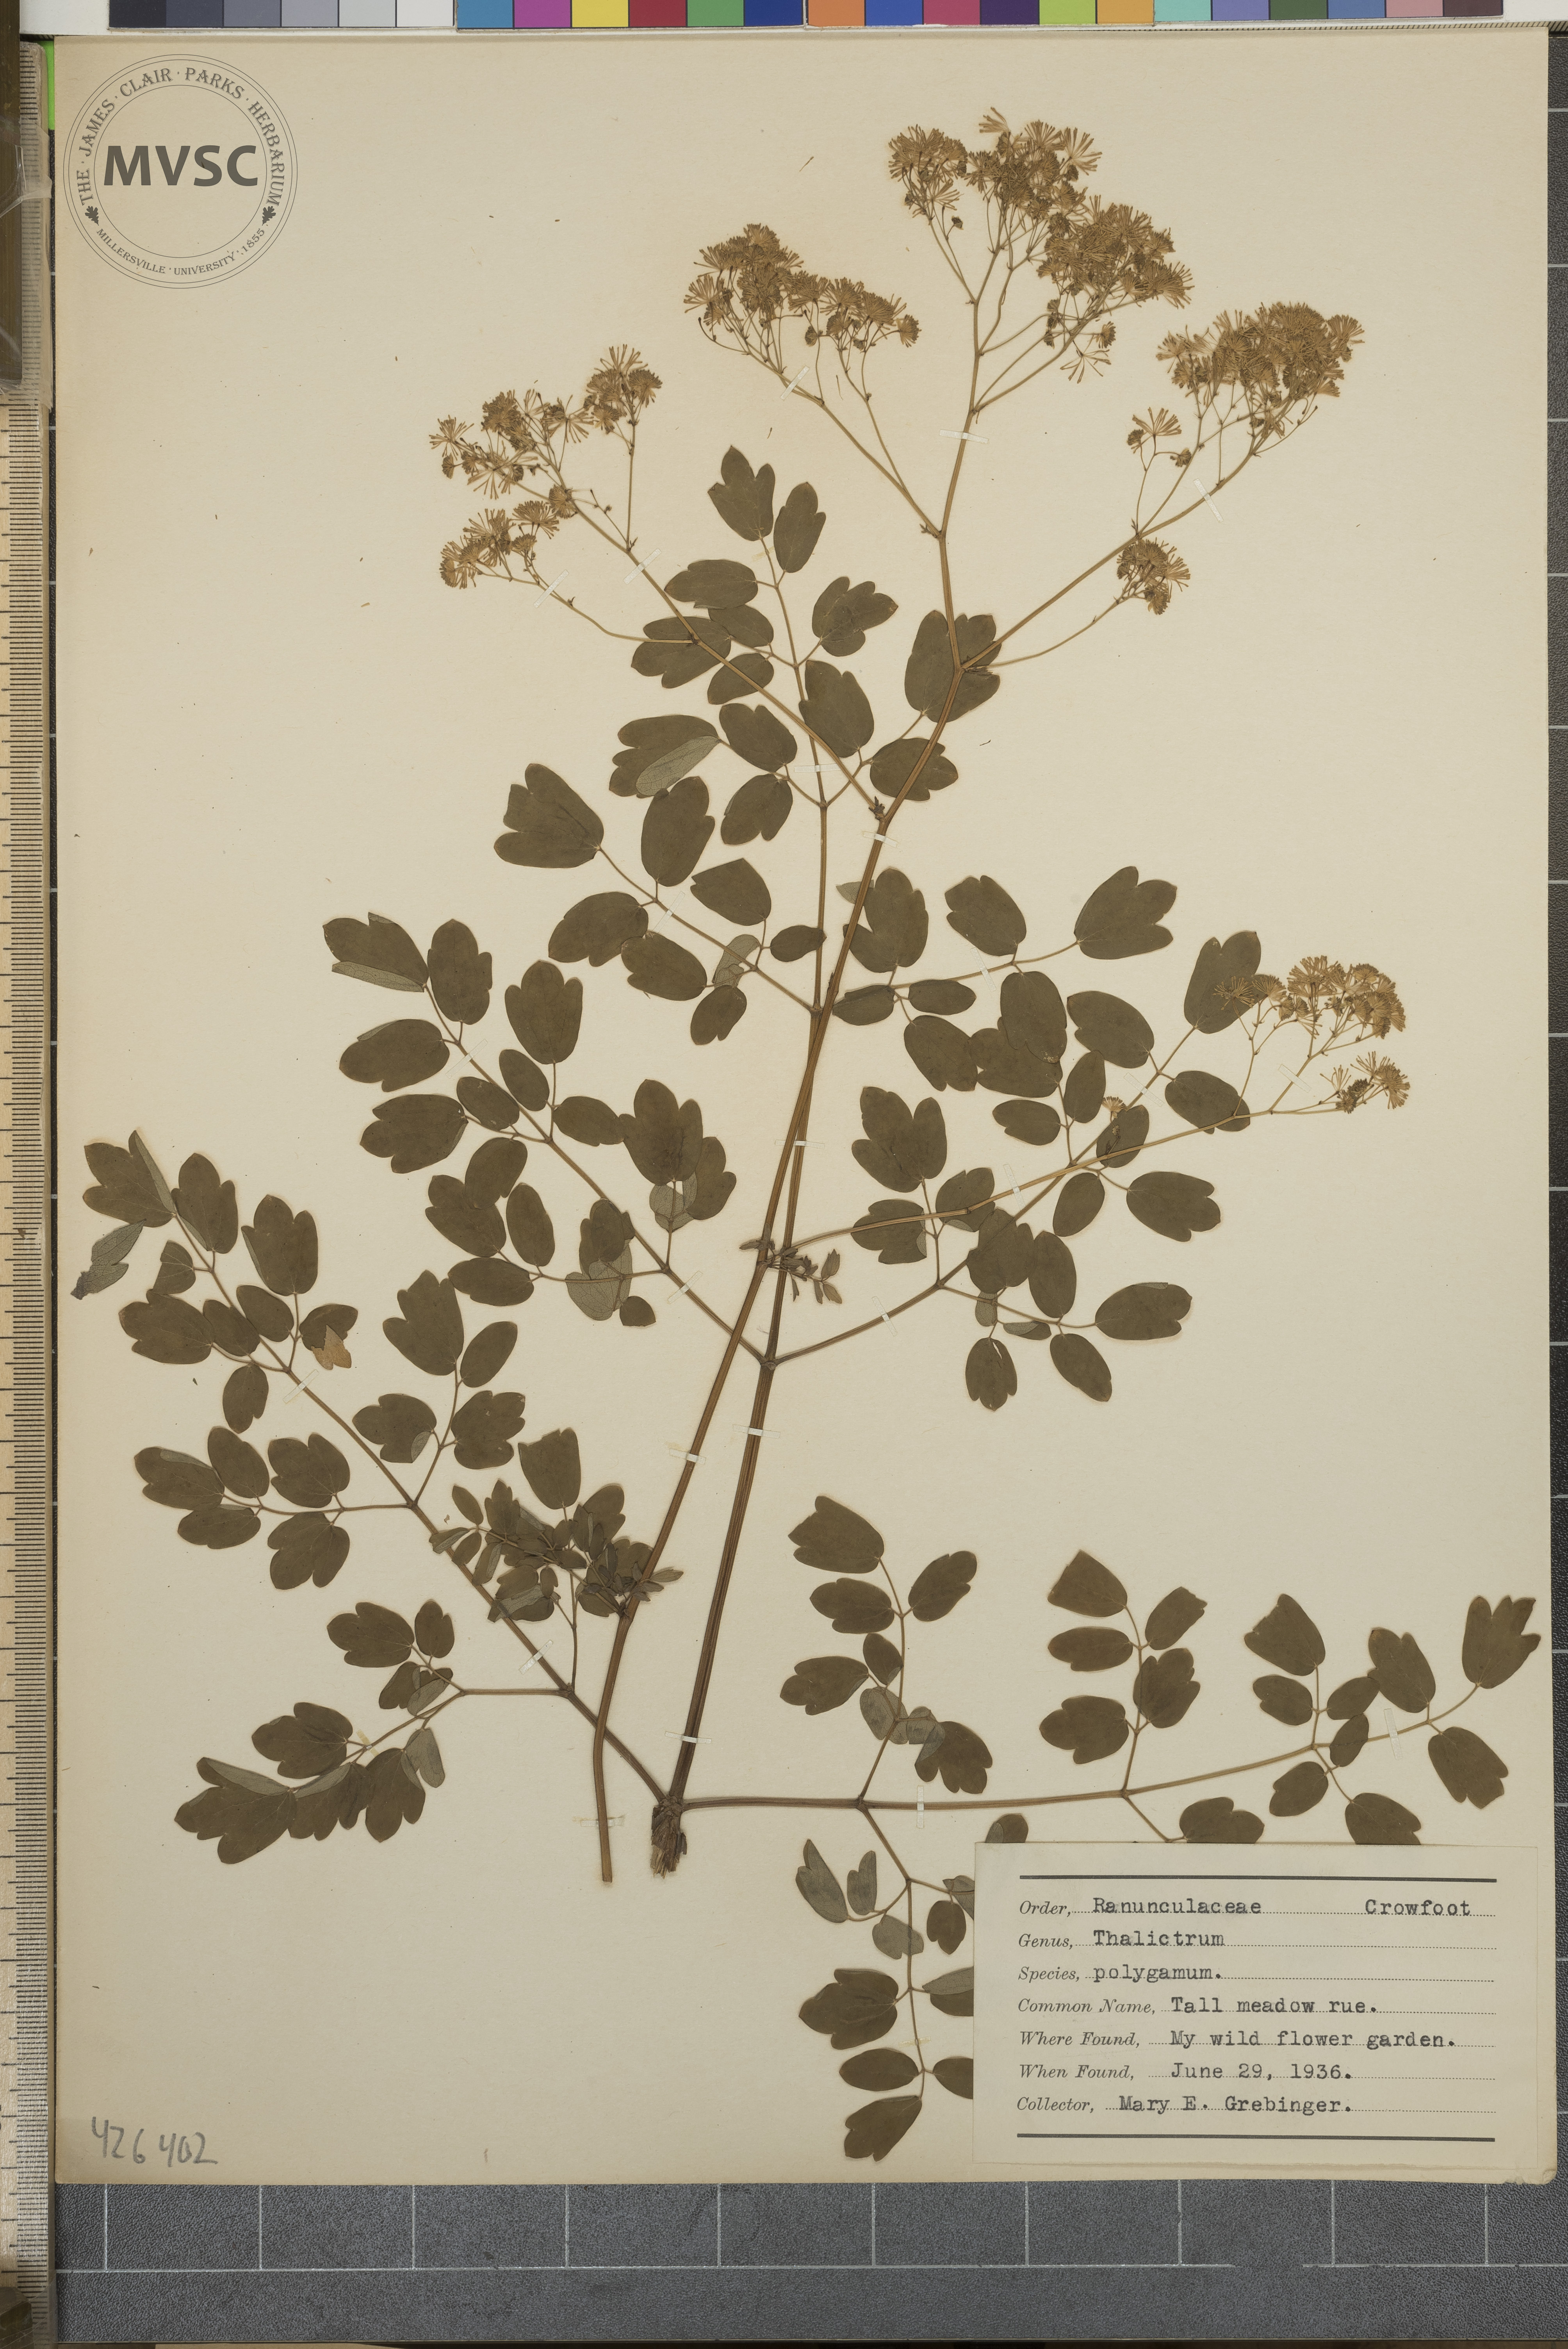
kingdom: Plantae
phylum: Tracheophyta
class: Magnoliopsida
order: Ranunculales
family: Ranunculaceae
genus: Thalictrum
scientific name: Thalictrum pubescens
